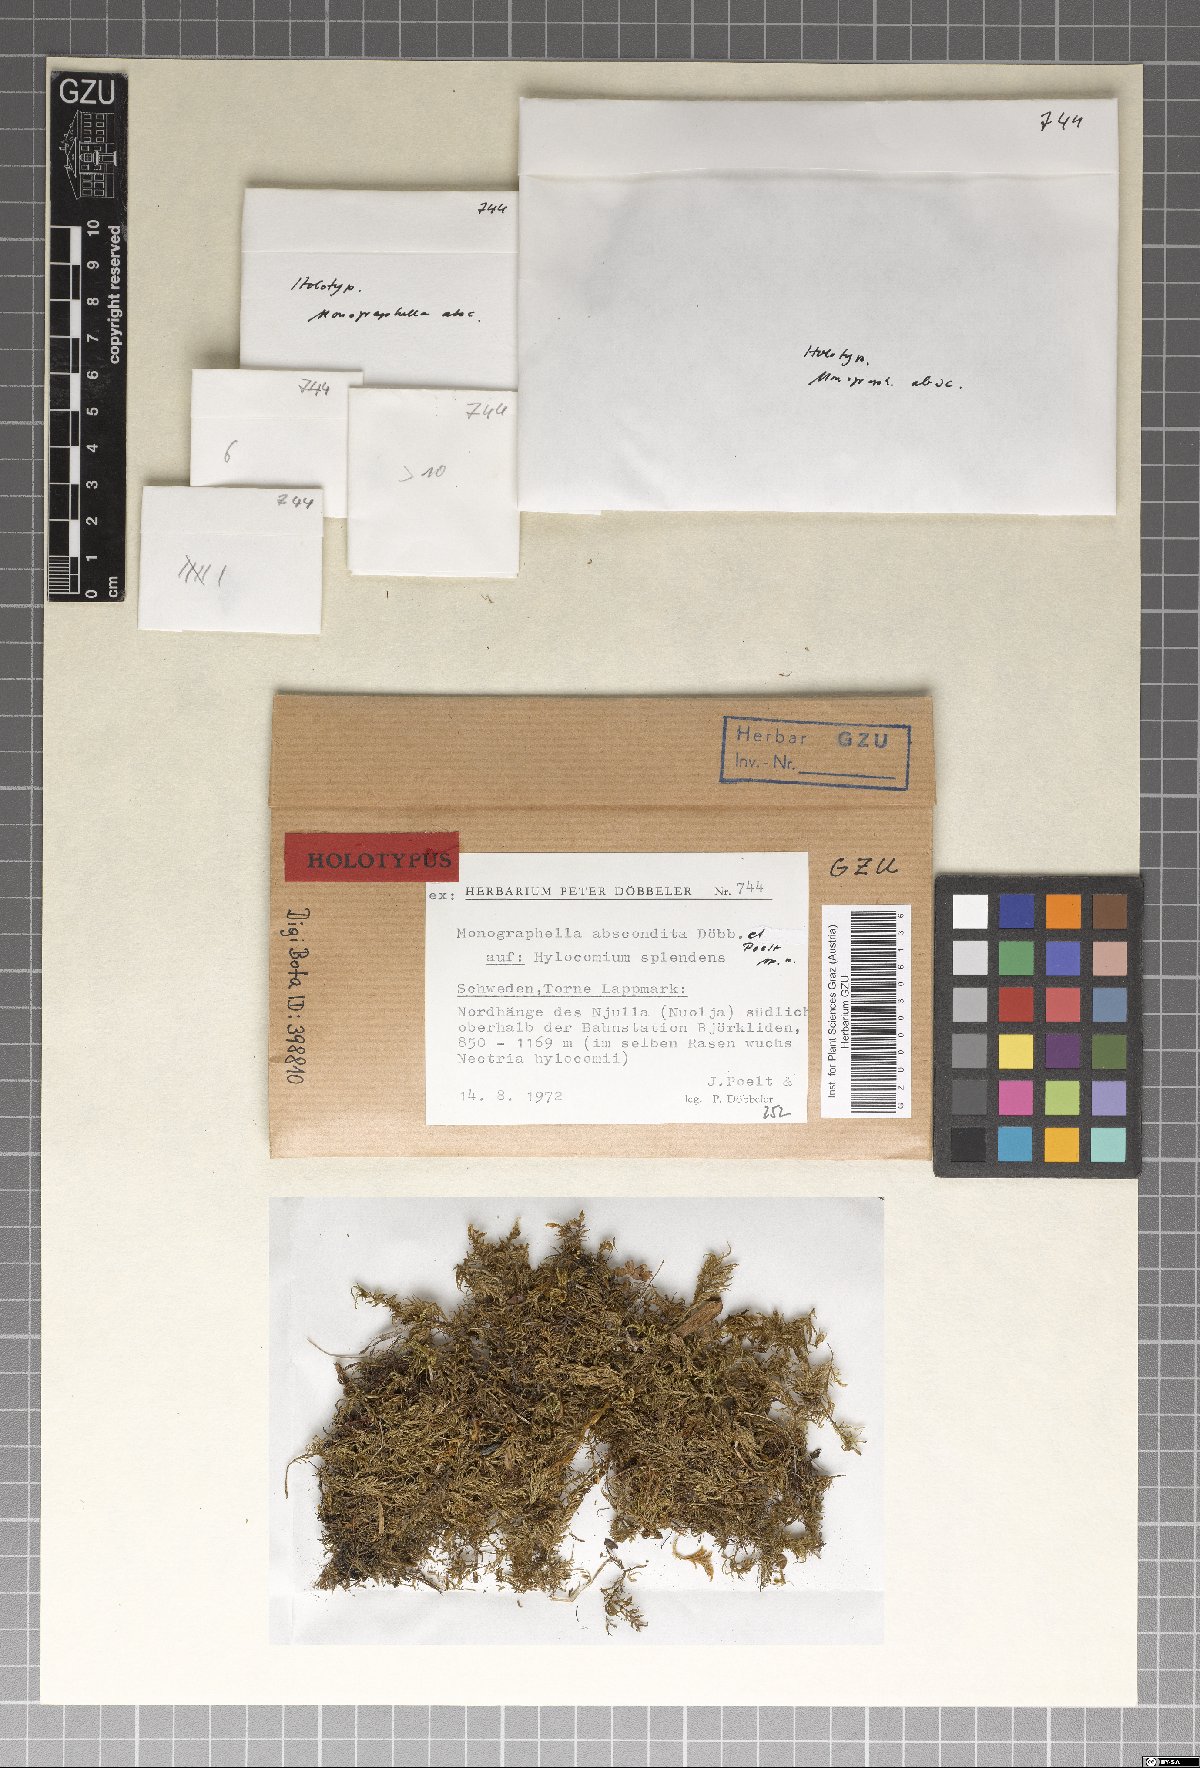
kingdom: Fungi
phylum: Ascomycota
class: Sordariomycetes
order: Amphisphaeriales
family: Amphisphaeriaceae
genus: Monographella
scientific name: Monographella abscondita
